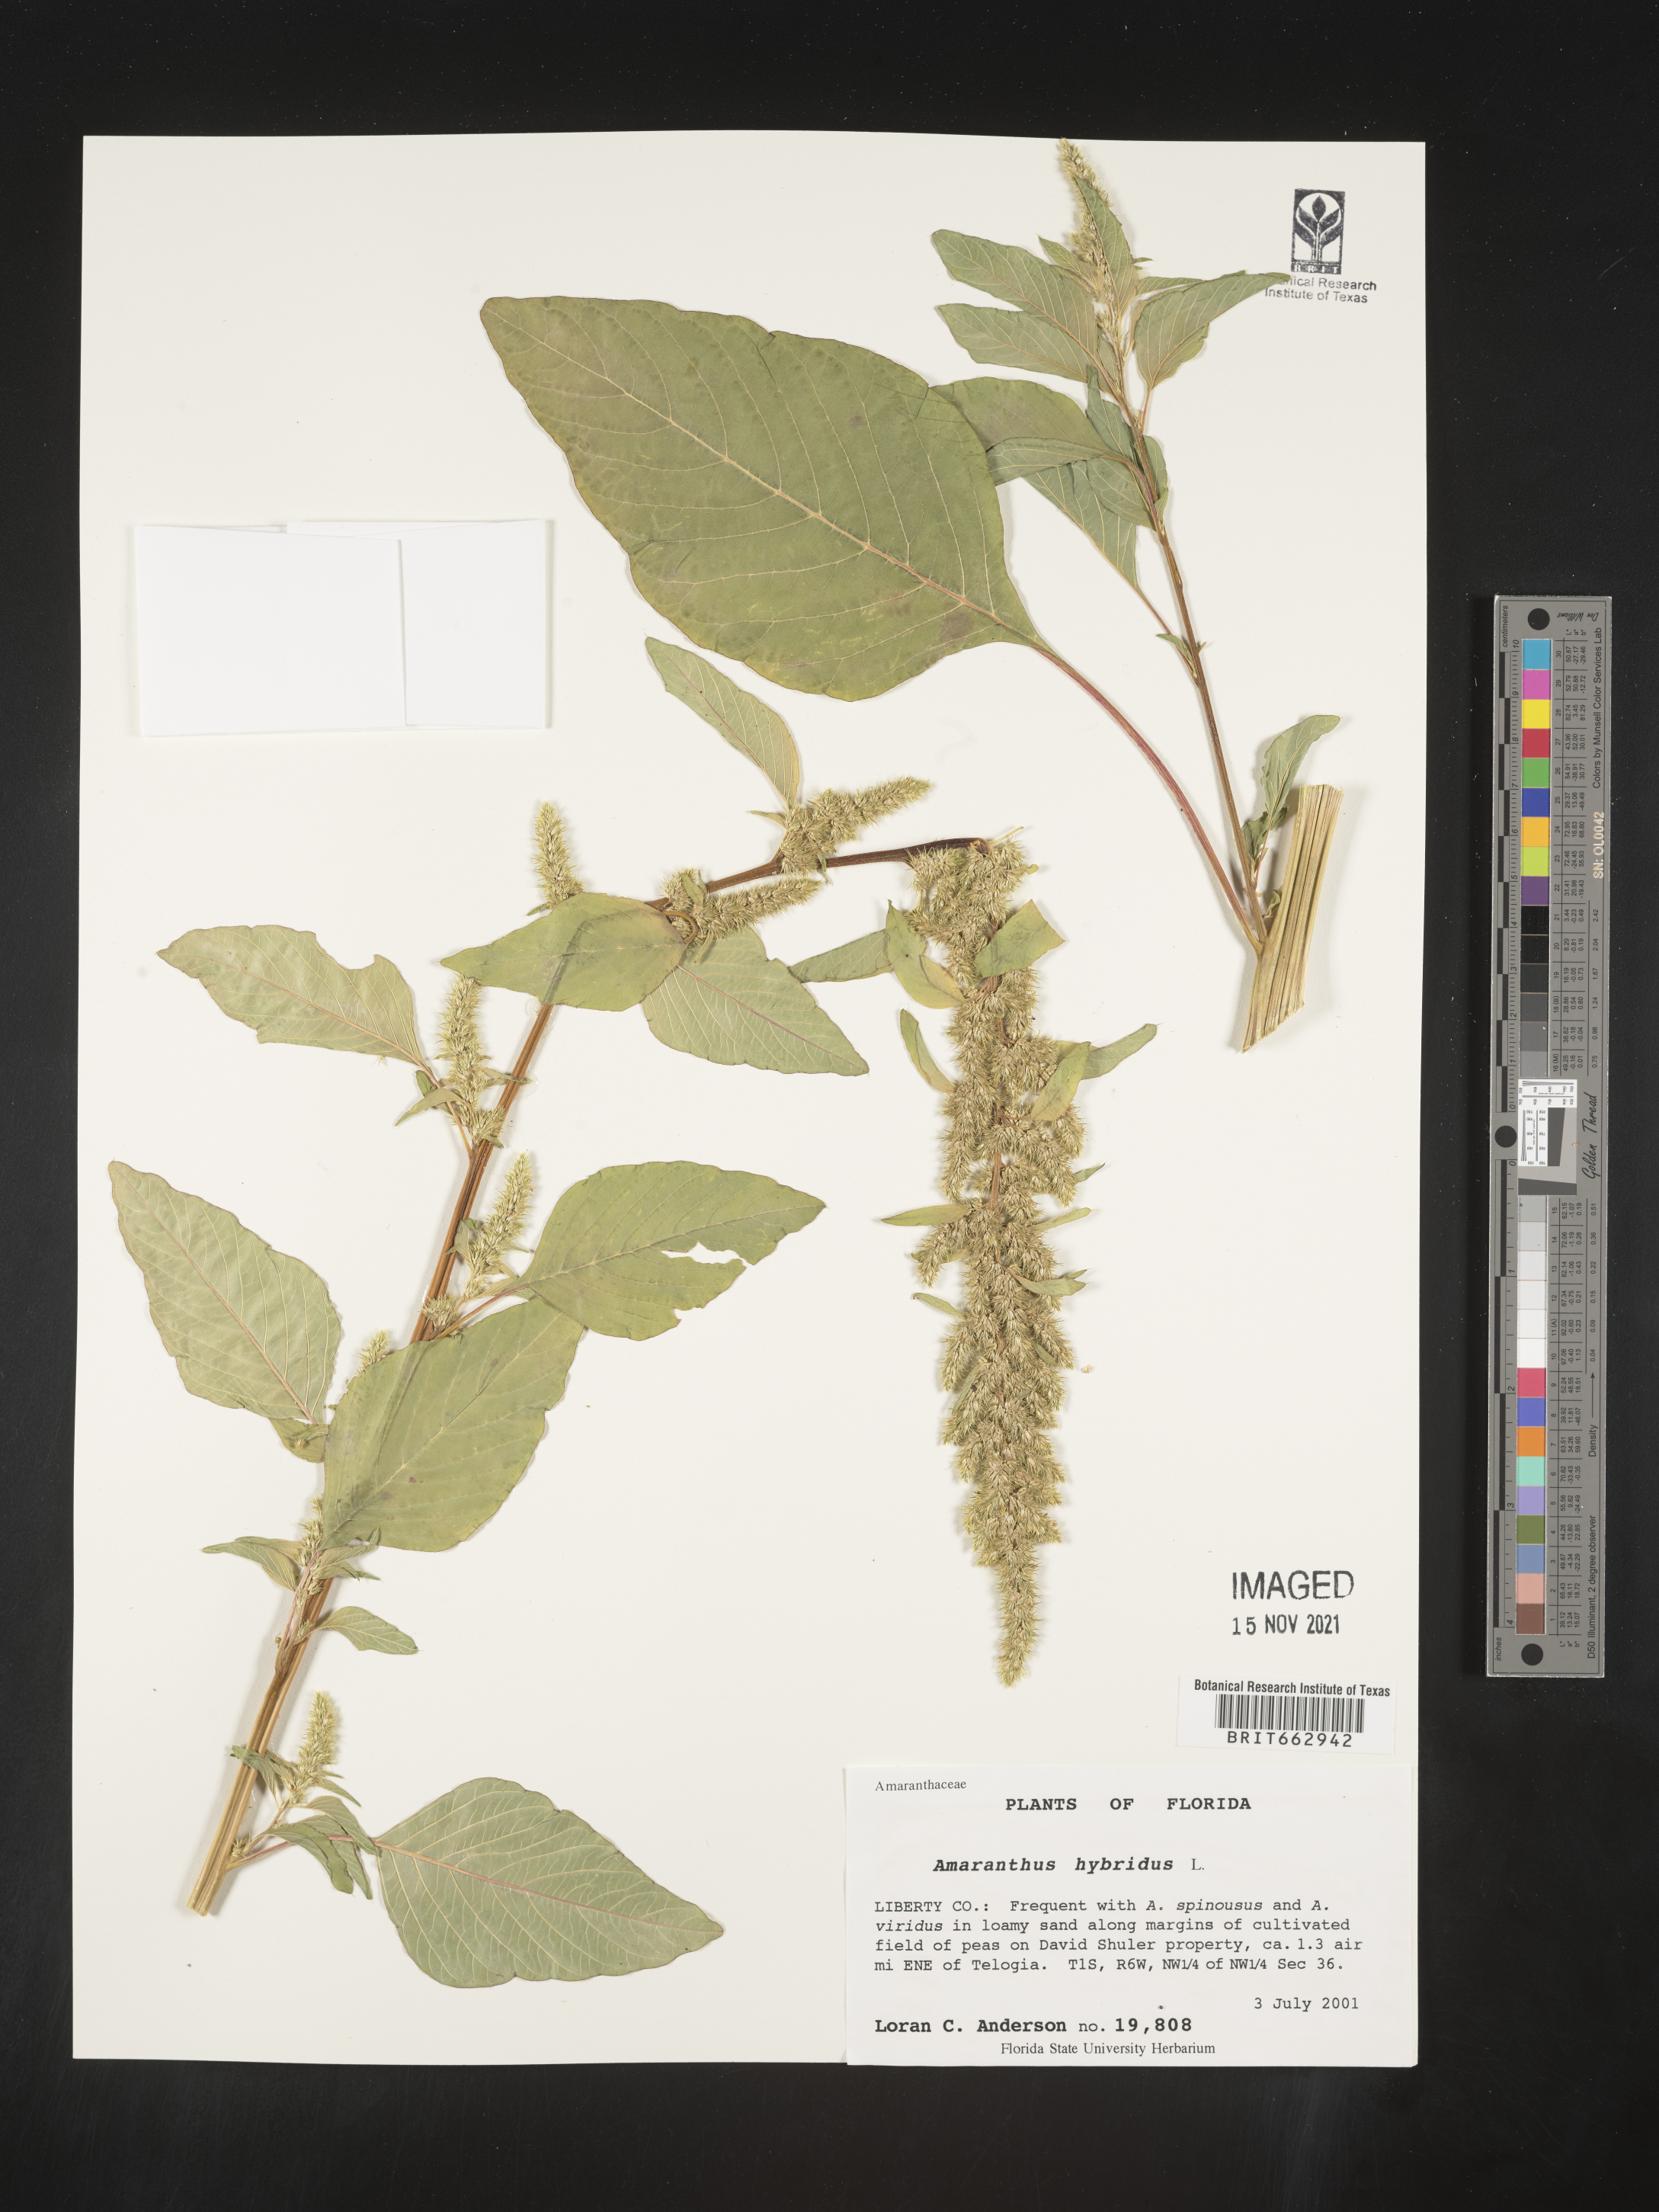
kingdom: Plantae
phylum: Tracheophyta
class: Magnoliopsida
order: Caryophyllales
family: Amaranthaceae
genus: Amaranthus
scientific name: Amaranthus hybridus
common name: Green amaranth
